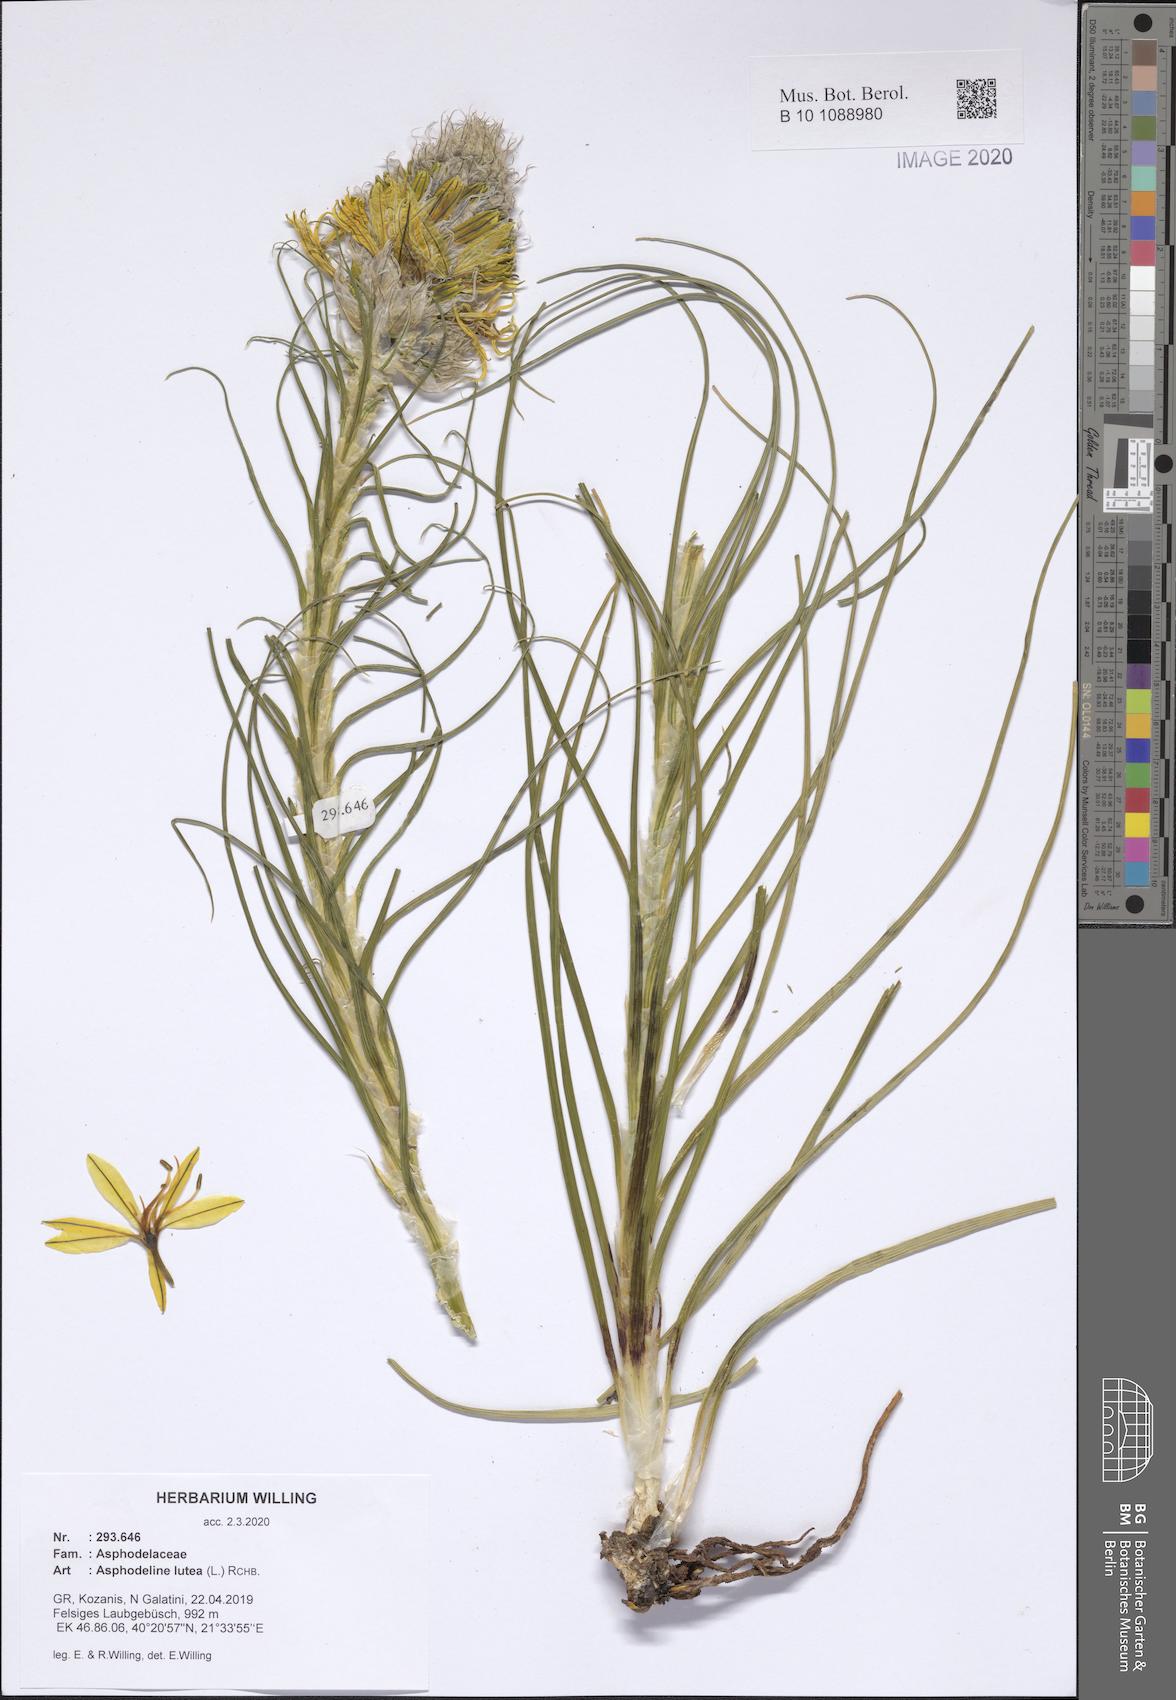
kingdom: Plantae
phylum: Tracheophyta
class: Liliopsida
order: Asparagales
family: Asphodelaceae
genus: Asphodeline
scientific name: Asphodeline lutea
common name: Yellow asphodel
